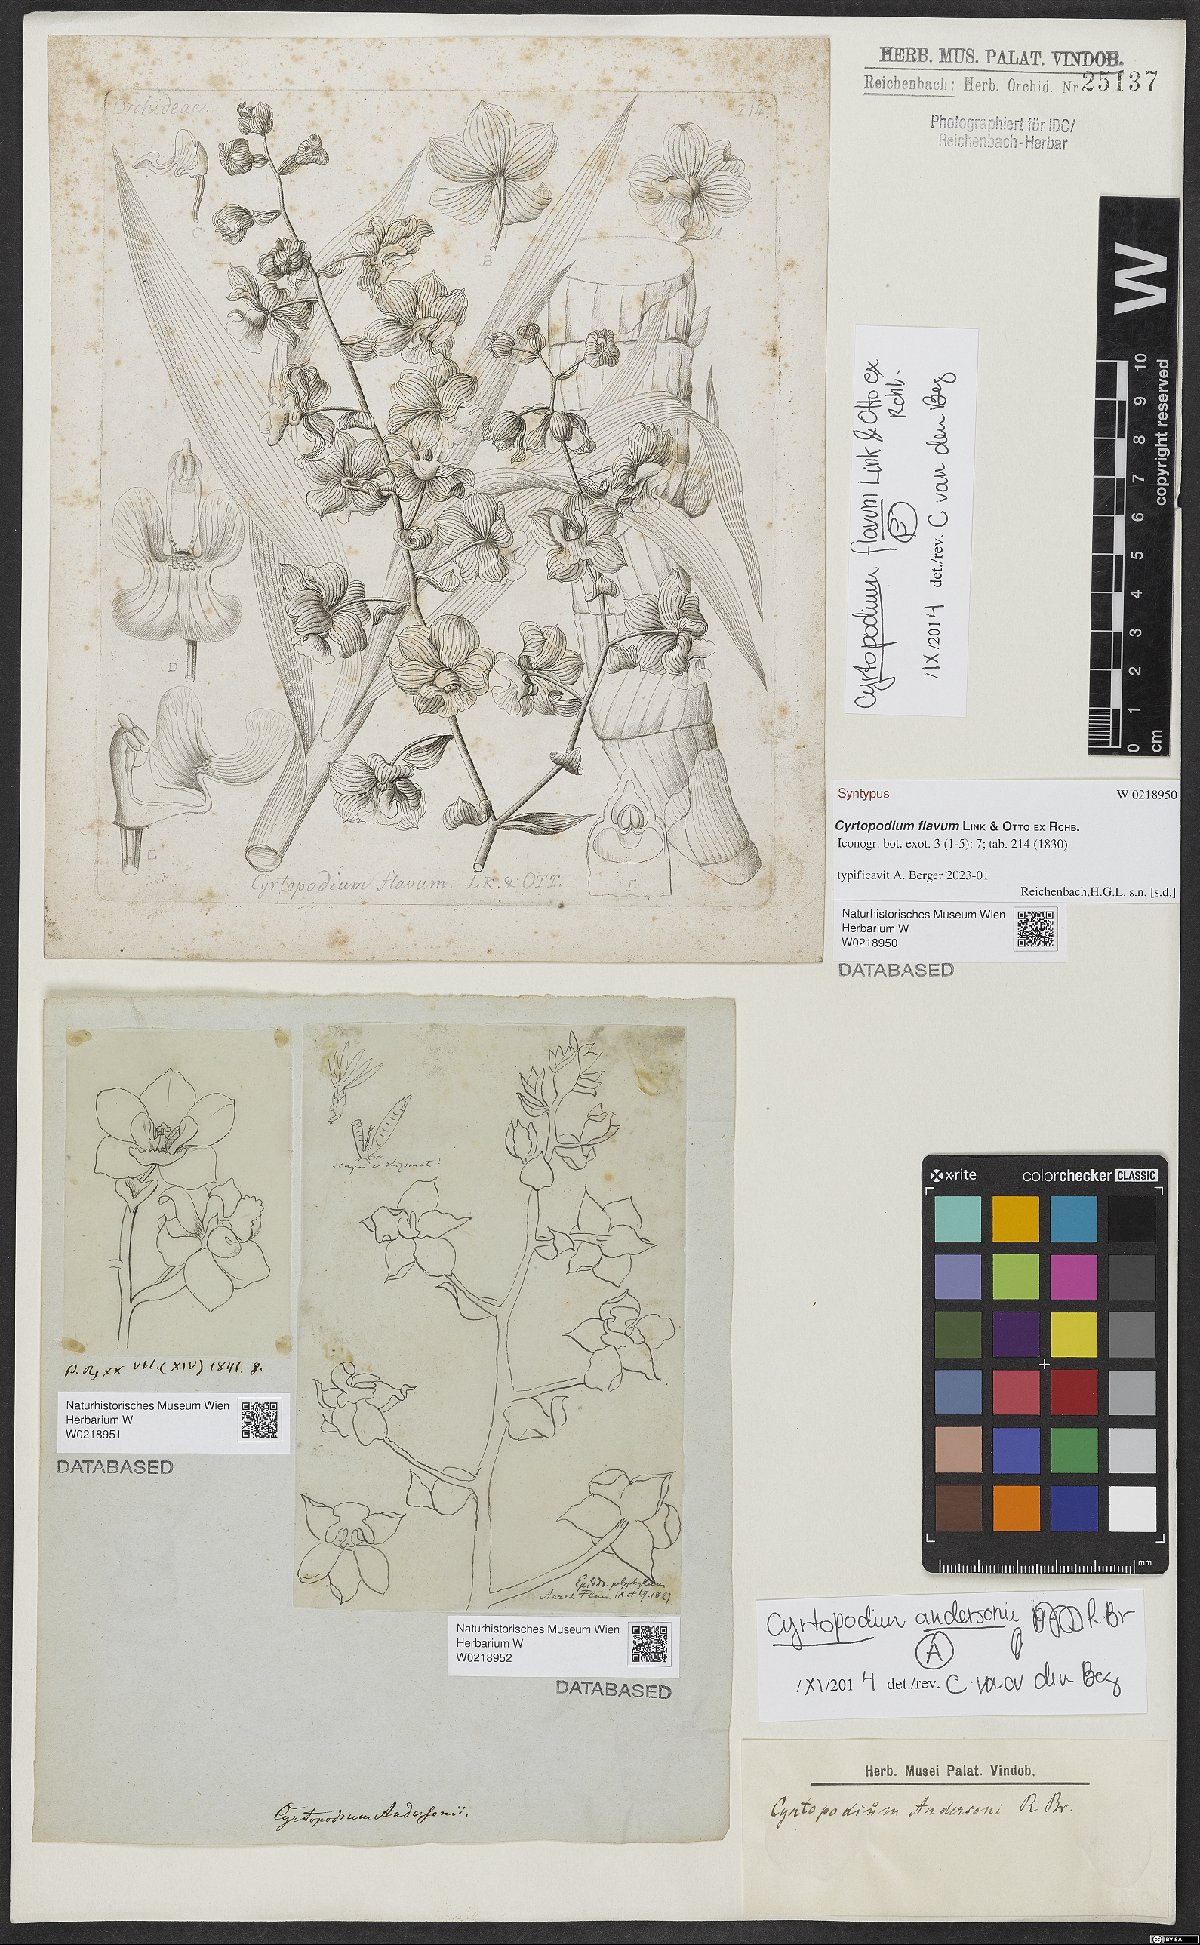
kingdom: Plantae
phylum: Tracheophyta
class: Liliopsida
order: Asparagales
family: Orchidaceae
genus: Cyrtopodium
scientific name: Cyrtopodium andersonii
